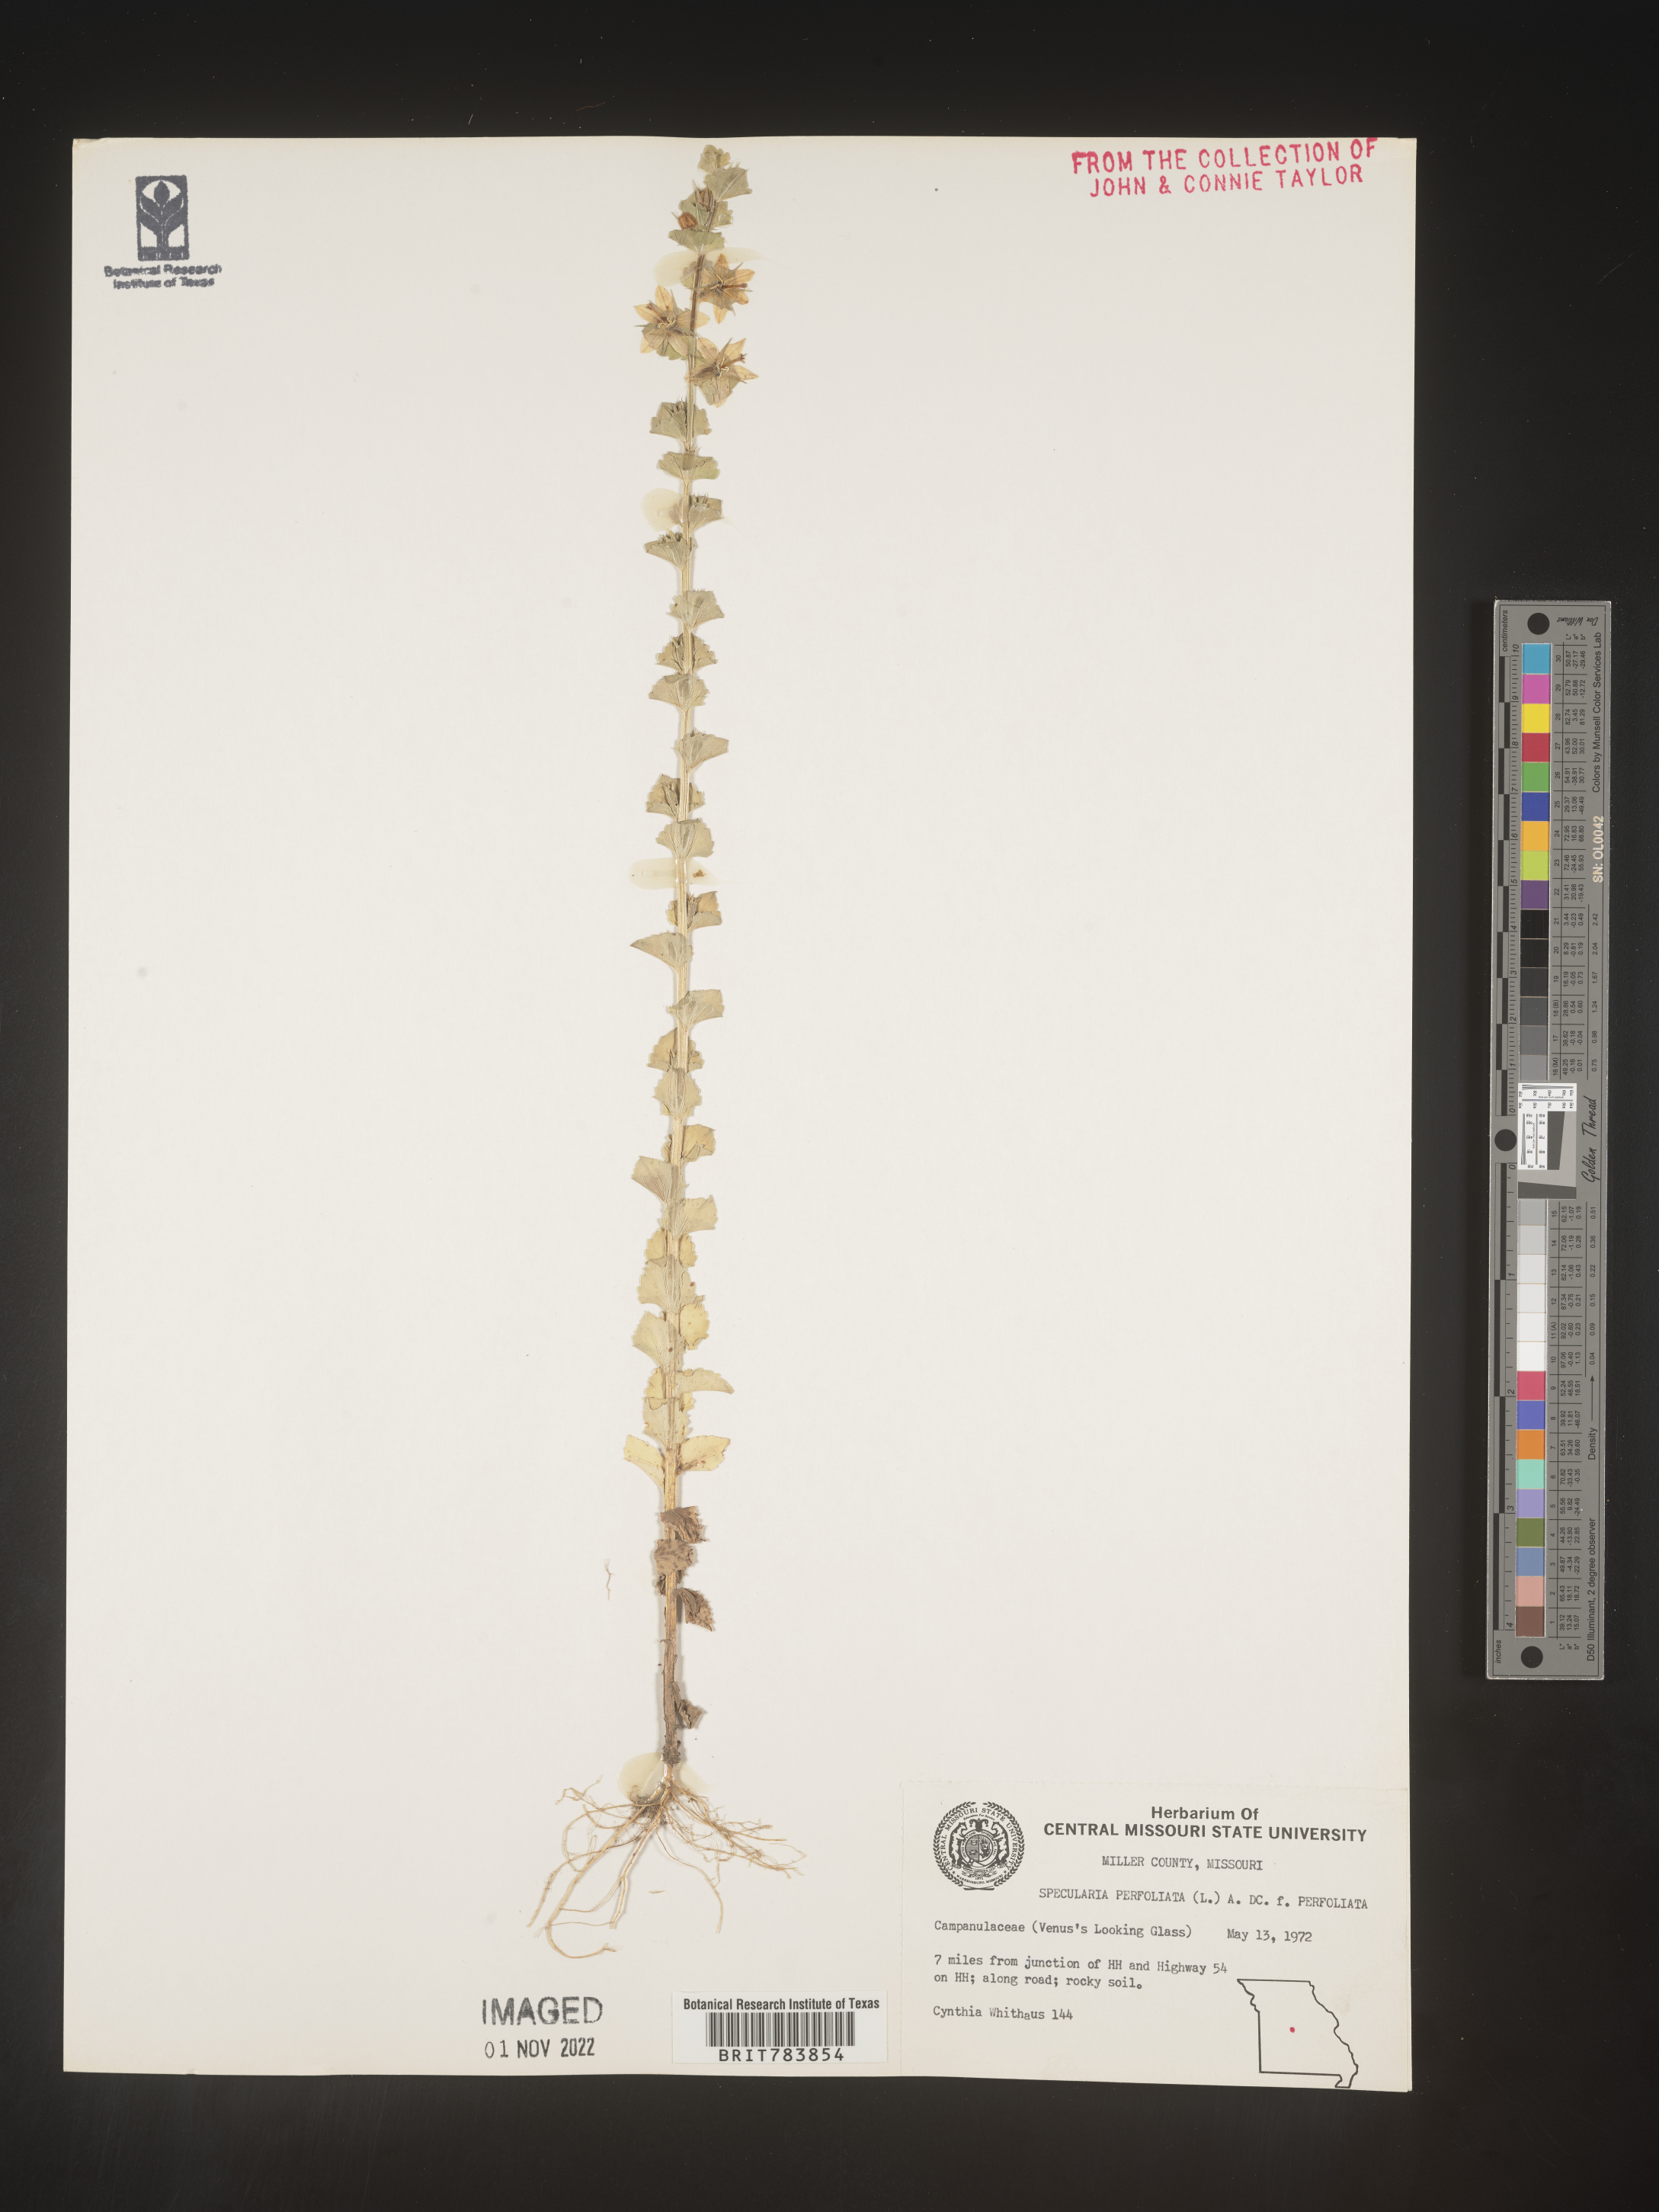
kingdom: Plantae
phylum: Tracheophyta
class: Magnoliopsida
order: Asterales
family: Campanulaceae
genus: Triodanis
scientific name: Triodanis perfoliata
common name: Clasping venus' looking-glass
